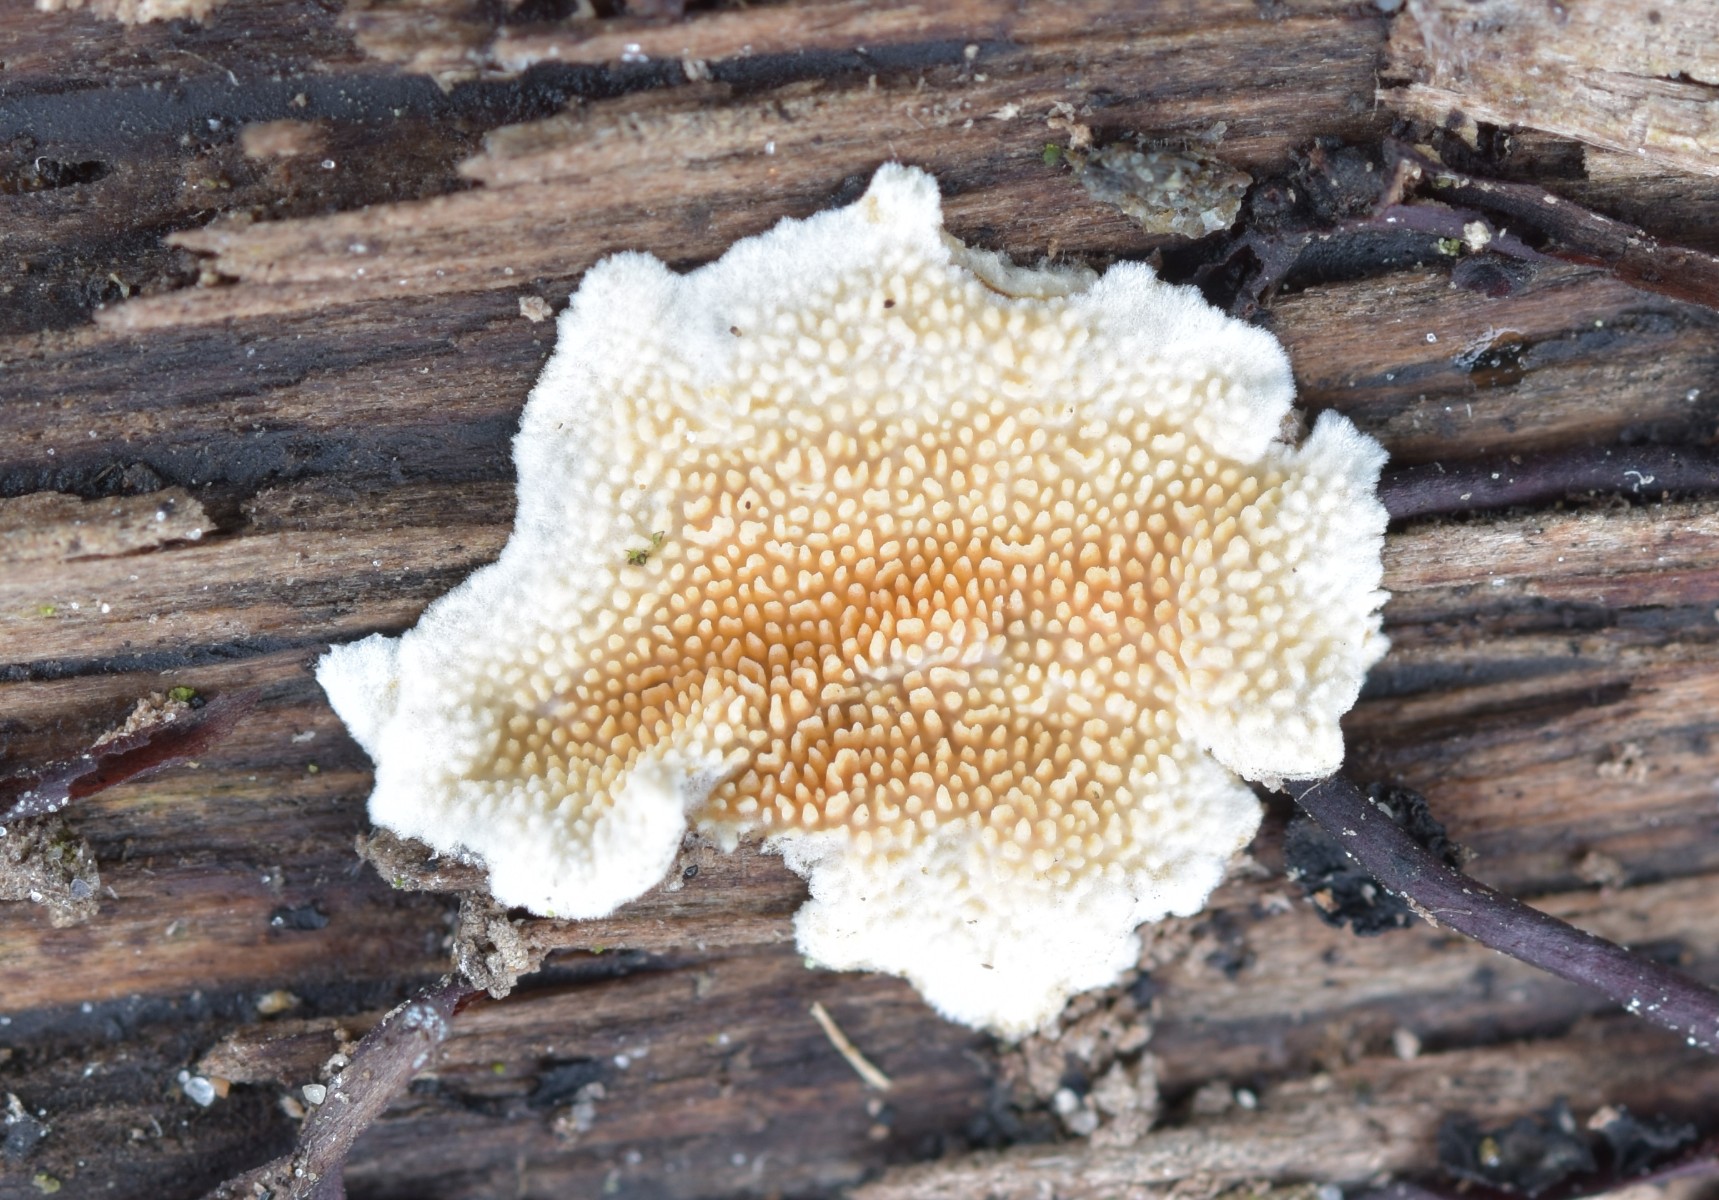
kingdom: Fungi
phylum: Basidiomycota
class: Agaricomycetes
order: Polyporales
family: Steccherinaceae
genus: Steccherinum
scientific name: Steccherinum ochraceum
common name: almindelig skønpig
